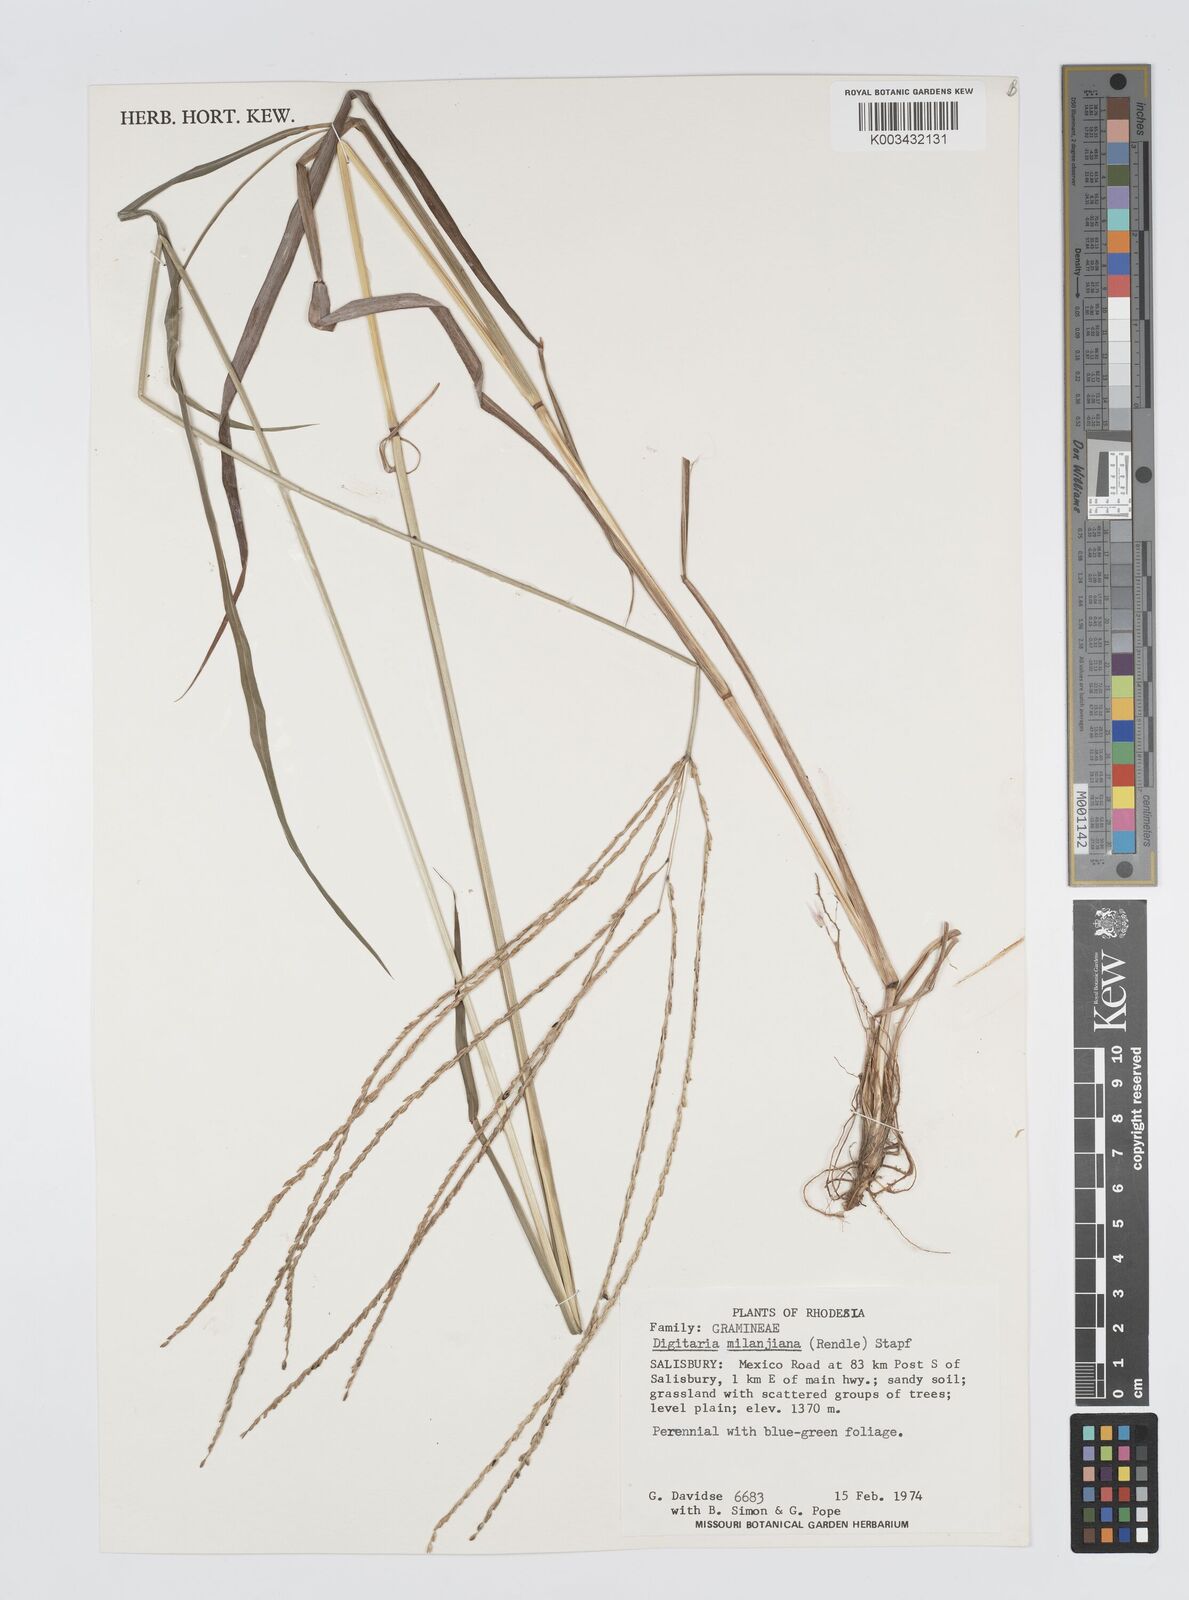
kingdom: Plantae
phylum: Tracheophyta
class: Liliopsida
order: Poales
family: Poaceae
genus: Digitaria
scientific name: Digitaria milanjiana
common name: Madagascar crabgrass
